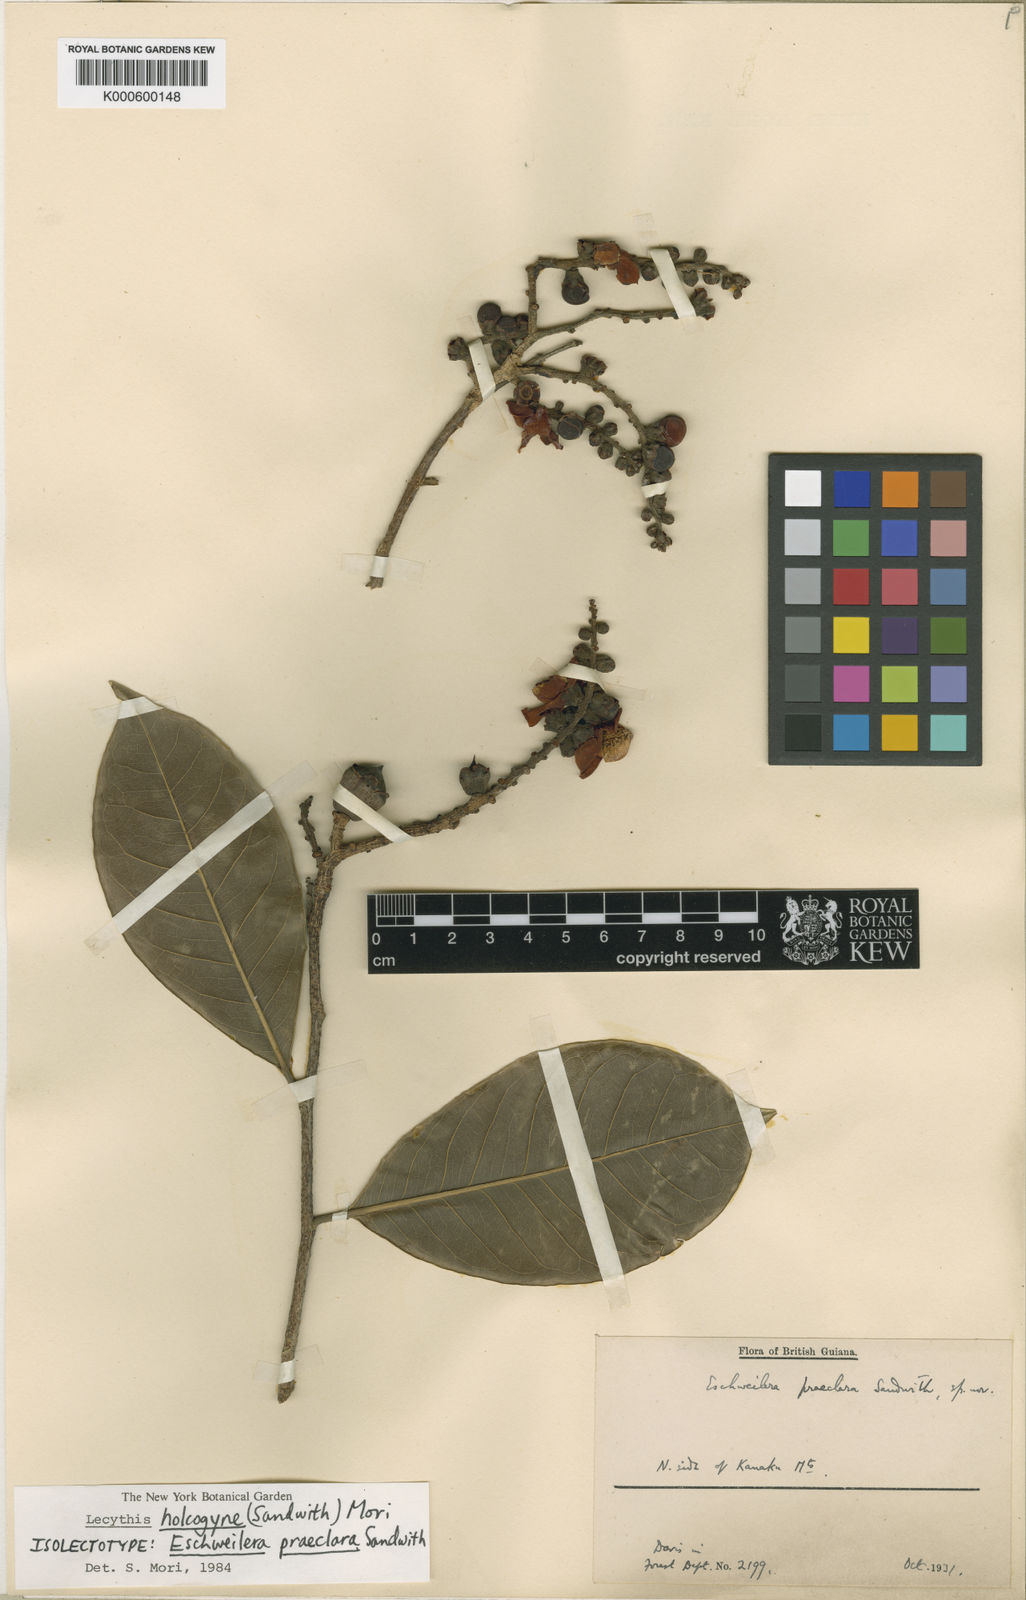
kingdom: Plantae
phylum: Tracheophyta
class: Magnoliopsida
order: Ericales
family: Lecythidaceae
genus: Lecythis
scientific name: Lecythis holcogyne
